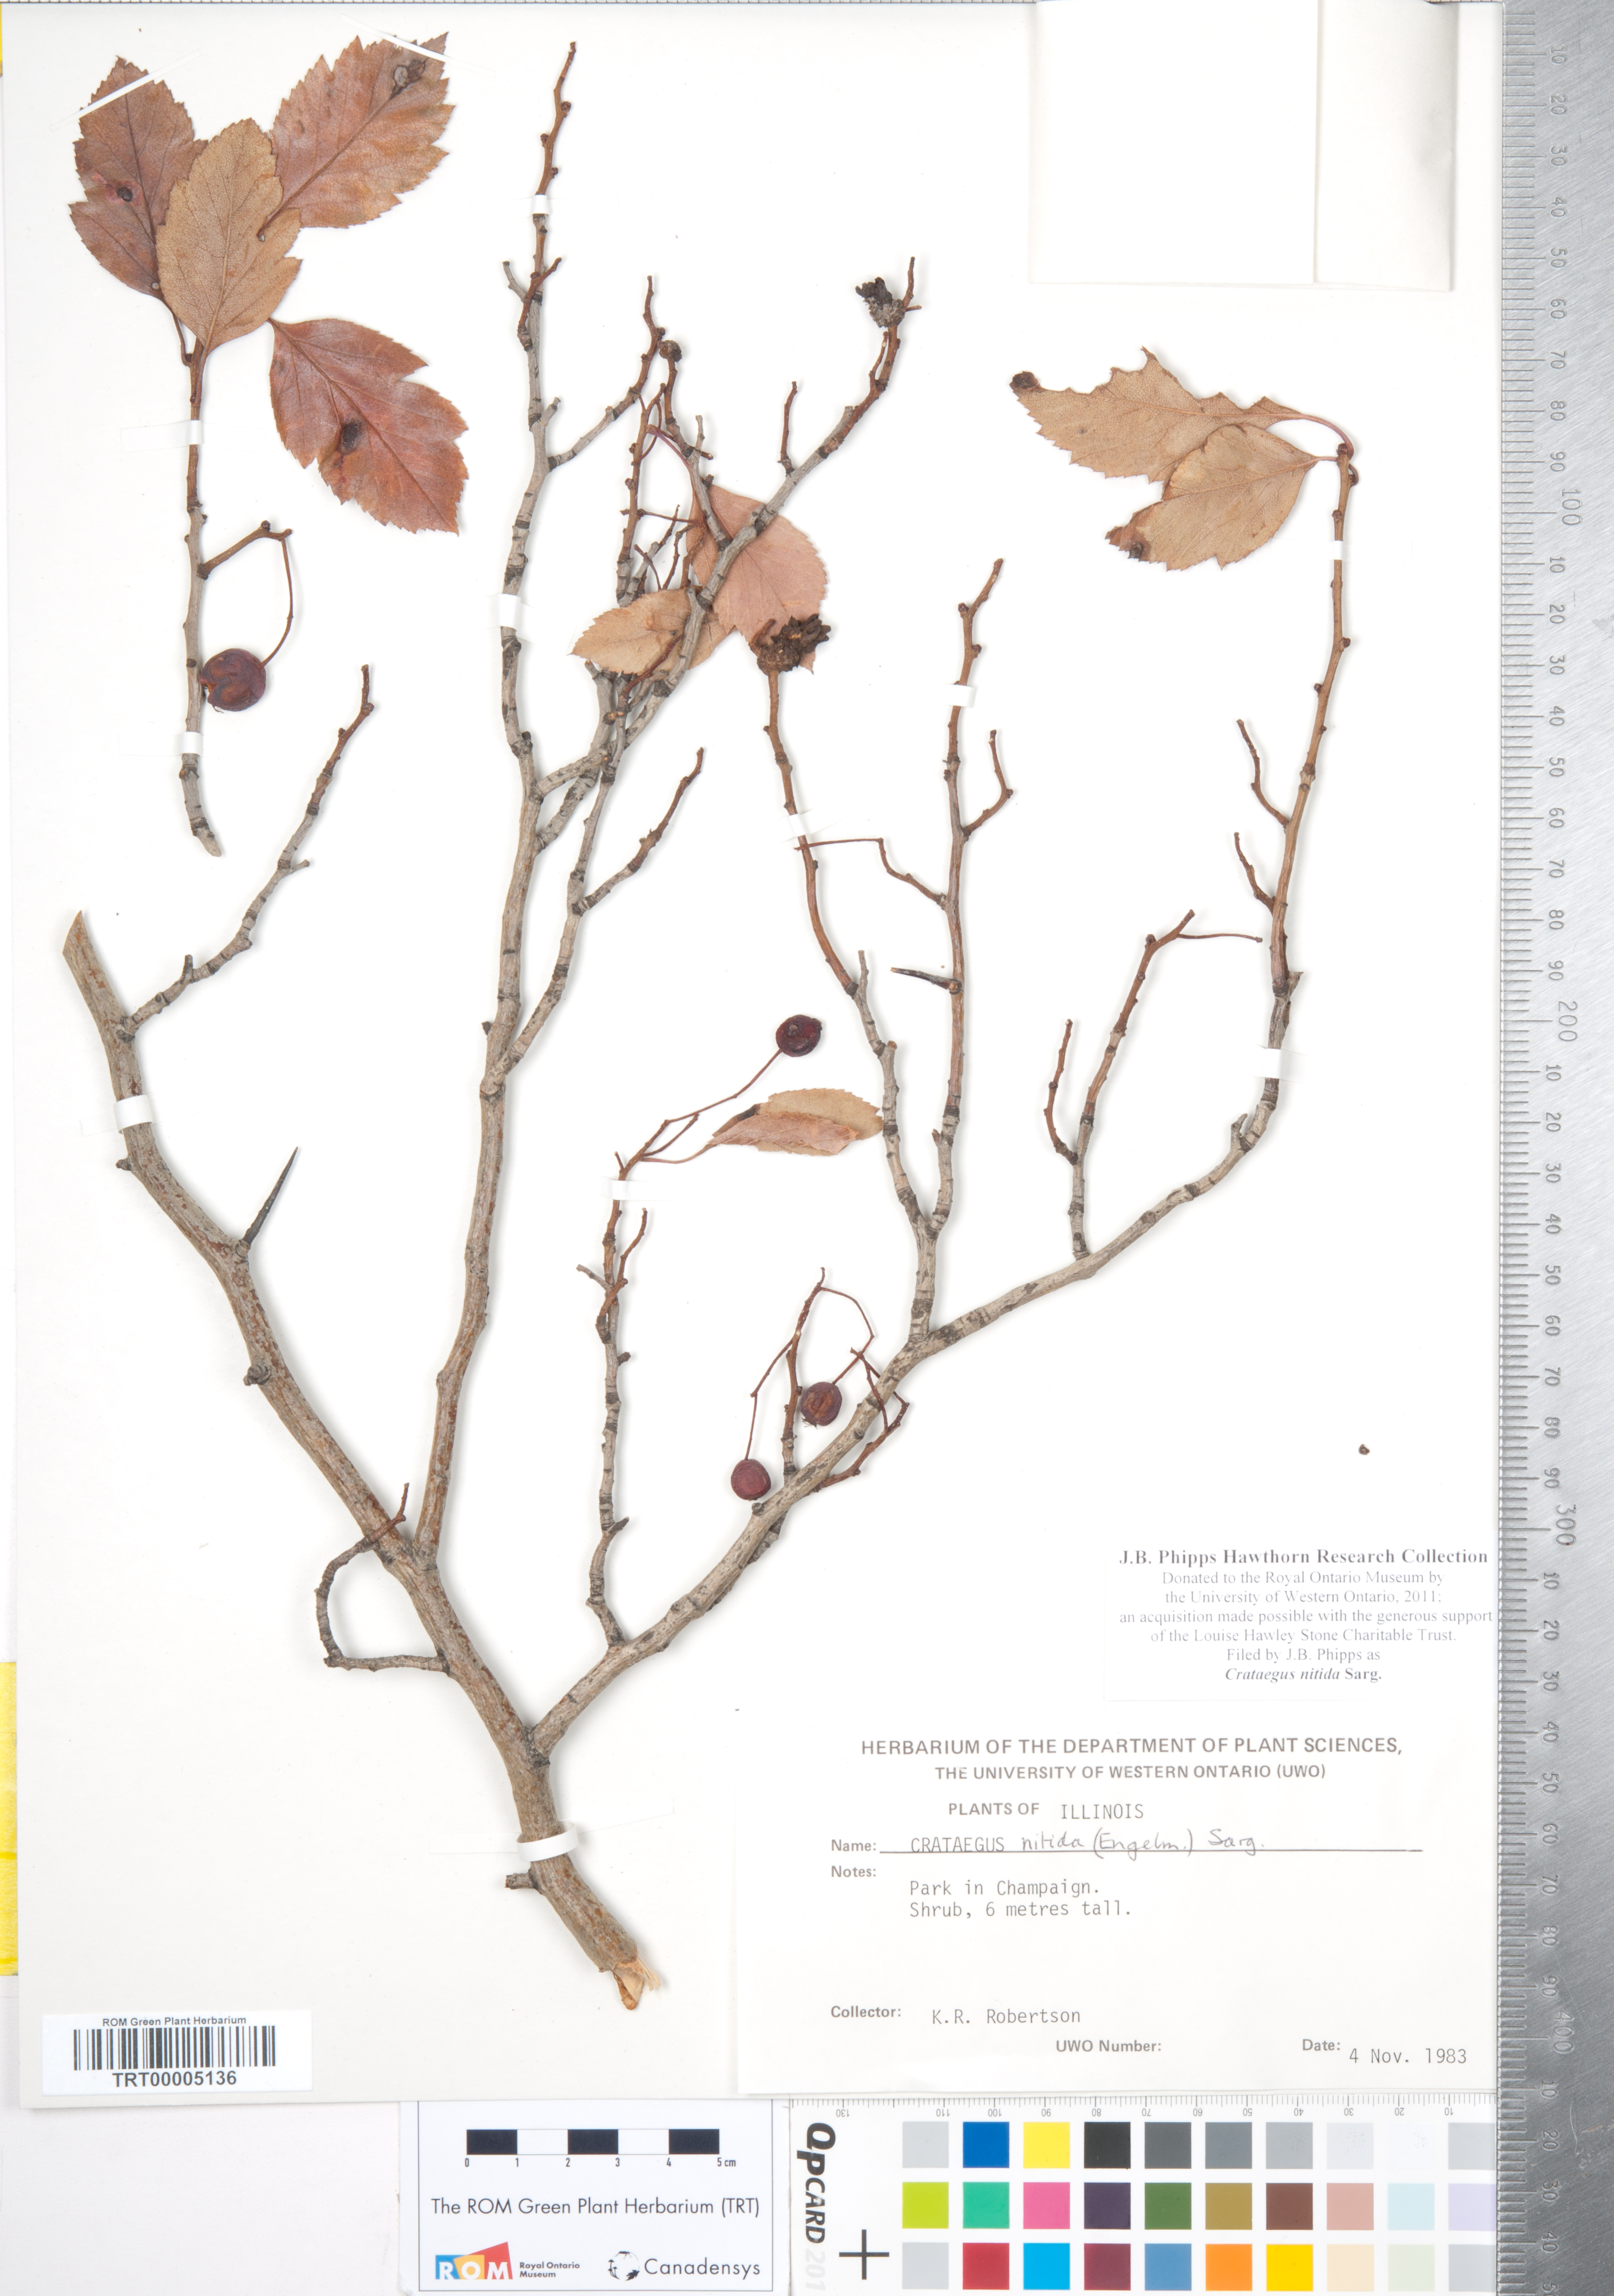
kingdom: Plantae
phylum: Tracheophyta
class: Magnoliopsida
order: Rosales
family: Rosaceae
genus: Crataegus
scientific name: Crataegus nitida
